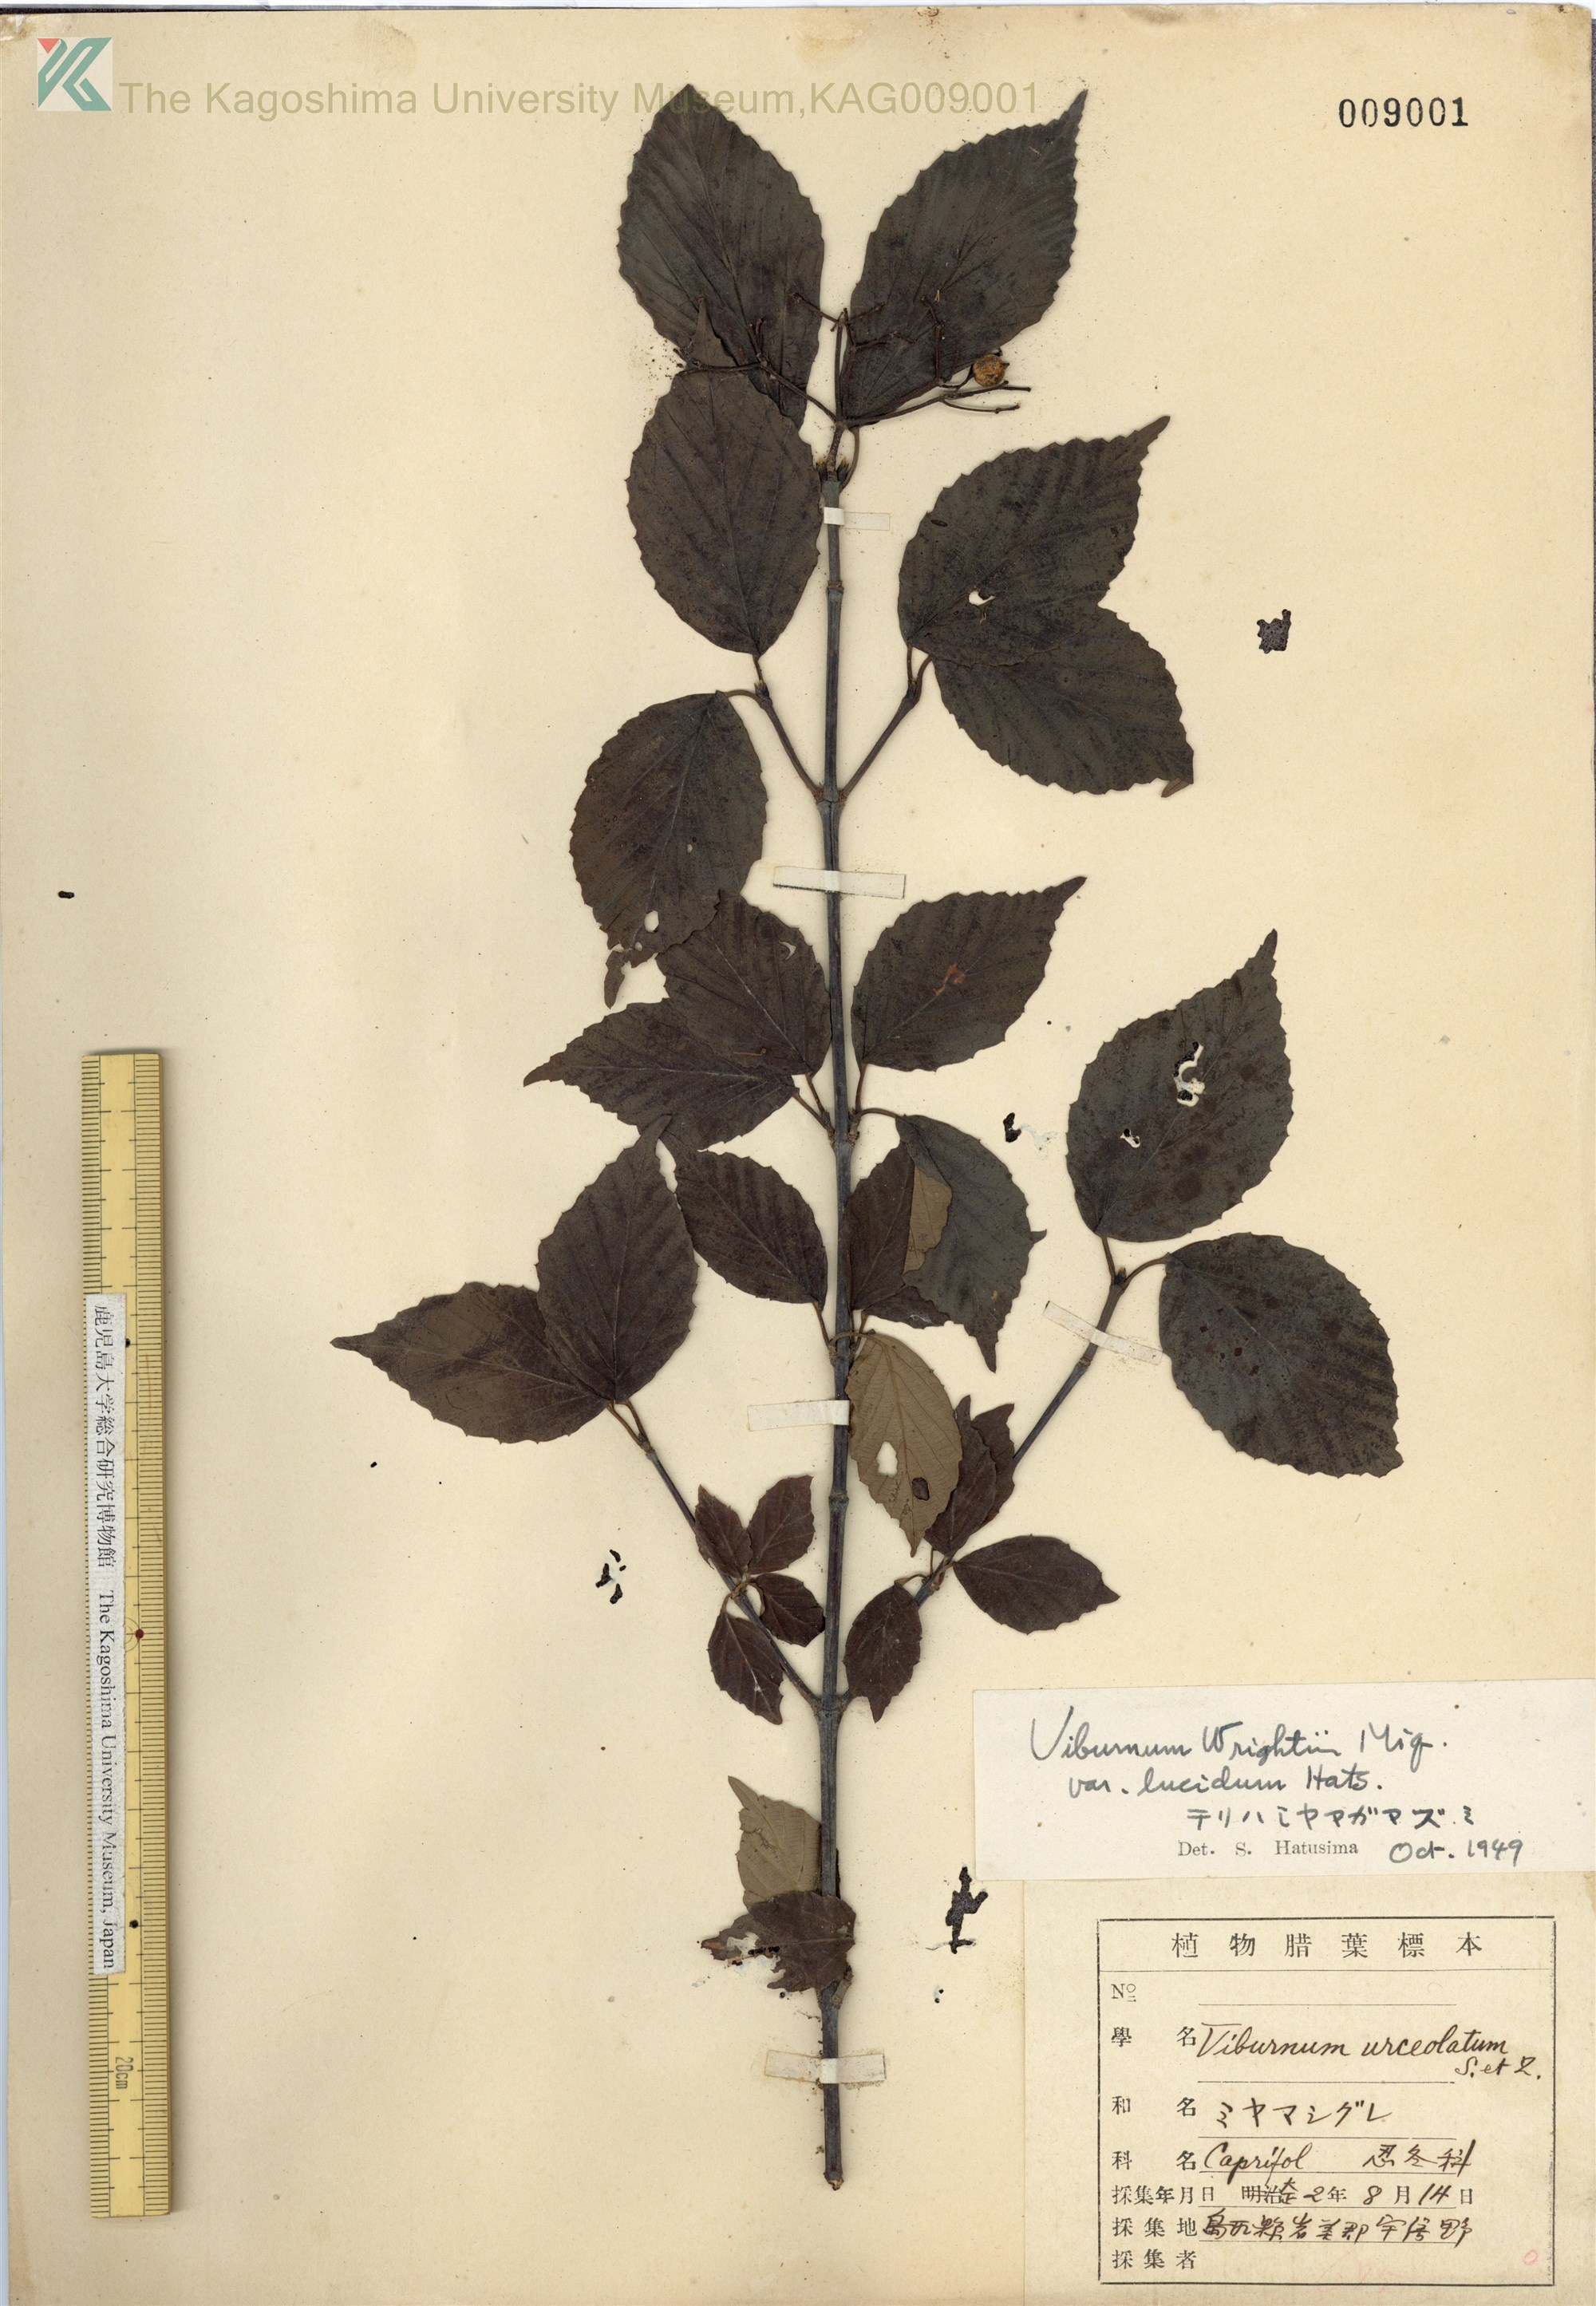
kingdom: Plantae
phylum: Tracheophyta
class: Magnoliopsida
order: Dipsacales
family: Viburnaceae
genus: Viburnum
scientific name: Viburnum wrightii
